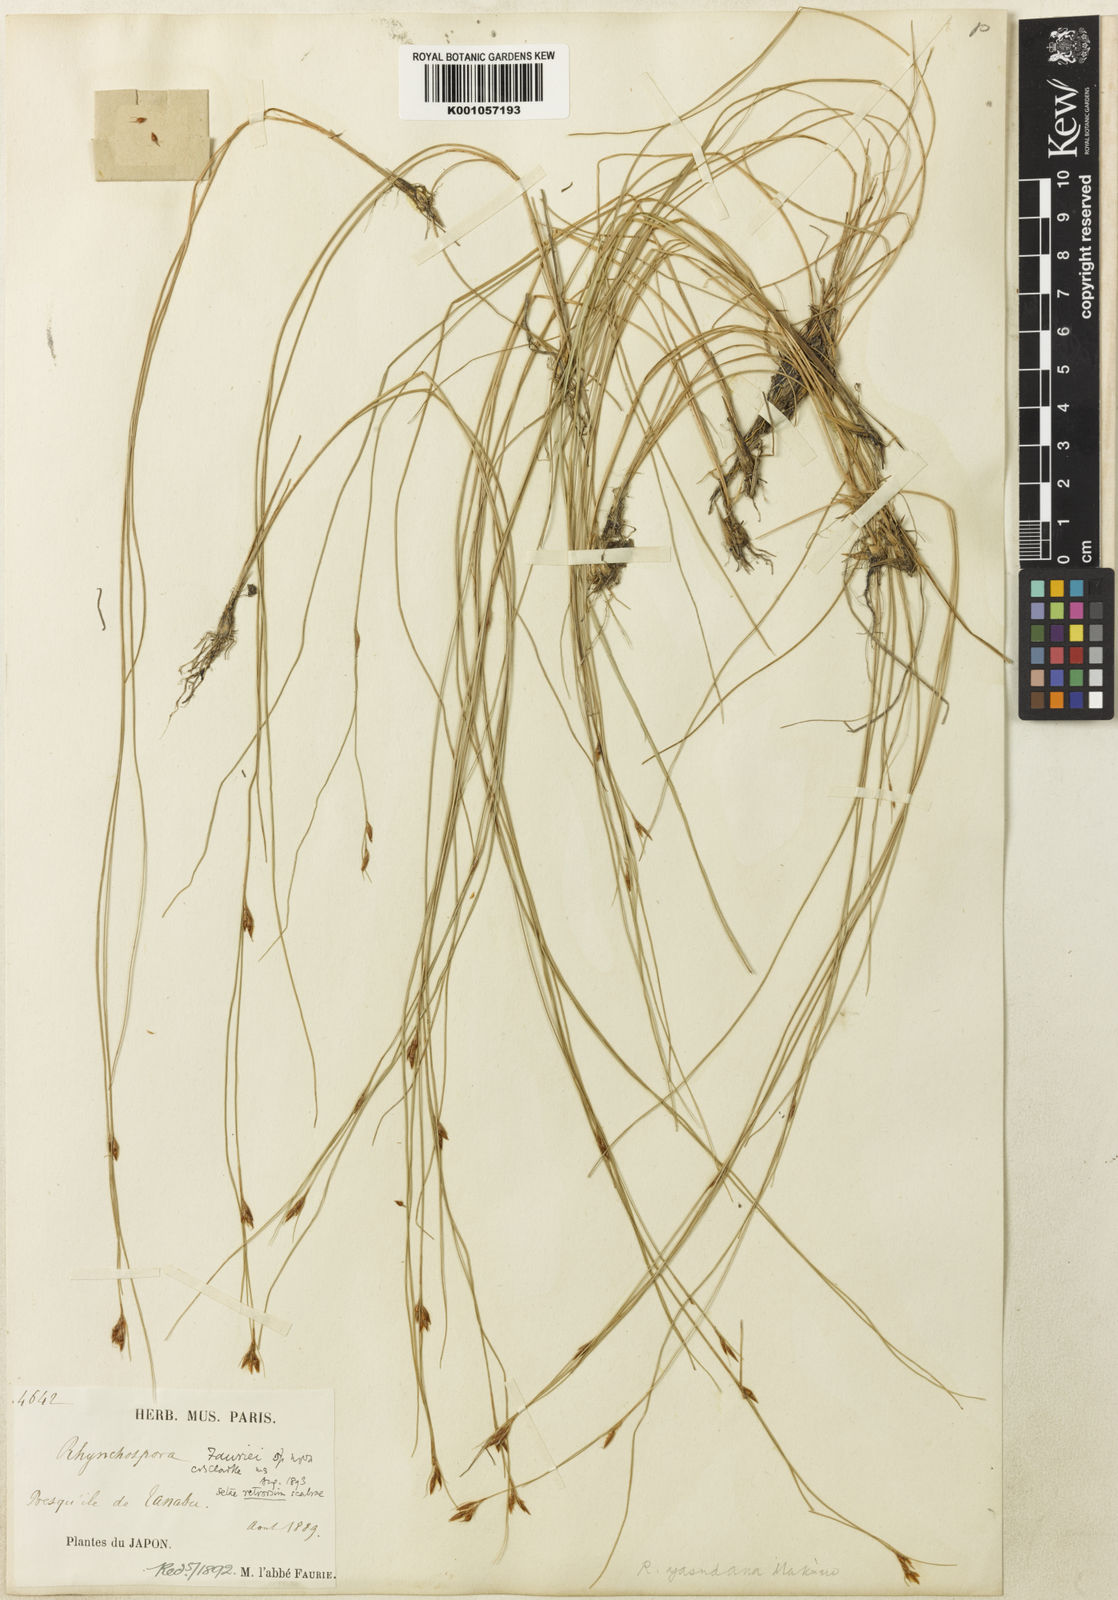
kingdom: Plantae
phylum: Tracheophyta
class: Liliopsida
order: Poales
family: Cyperaceae
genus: Rhynchospora
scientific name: Rhynchospora
